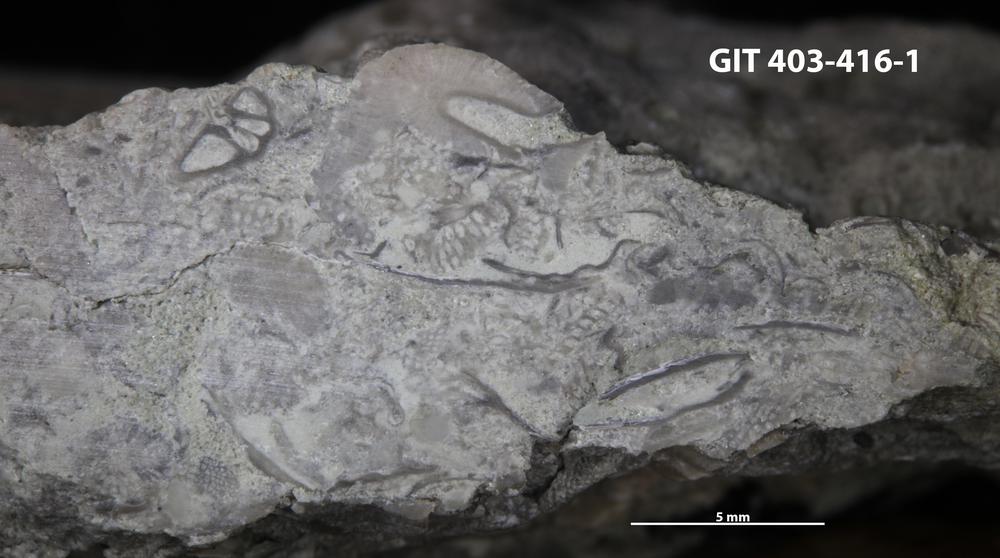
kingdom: Animalia
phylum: Cnidaria
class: Hydrozoa
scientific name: Hydrozoa
